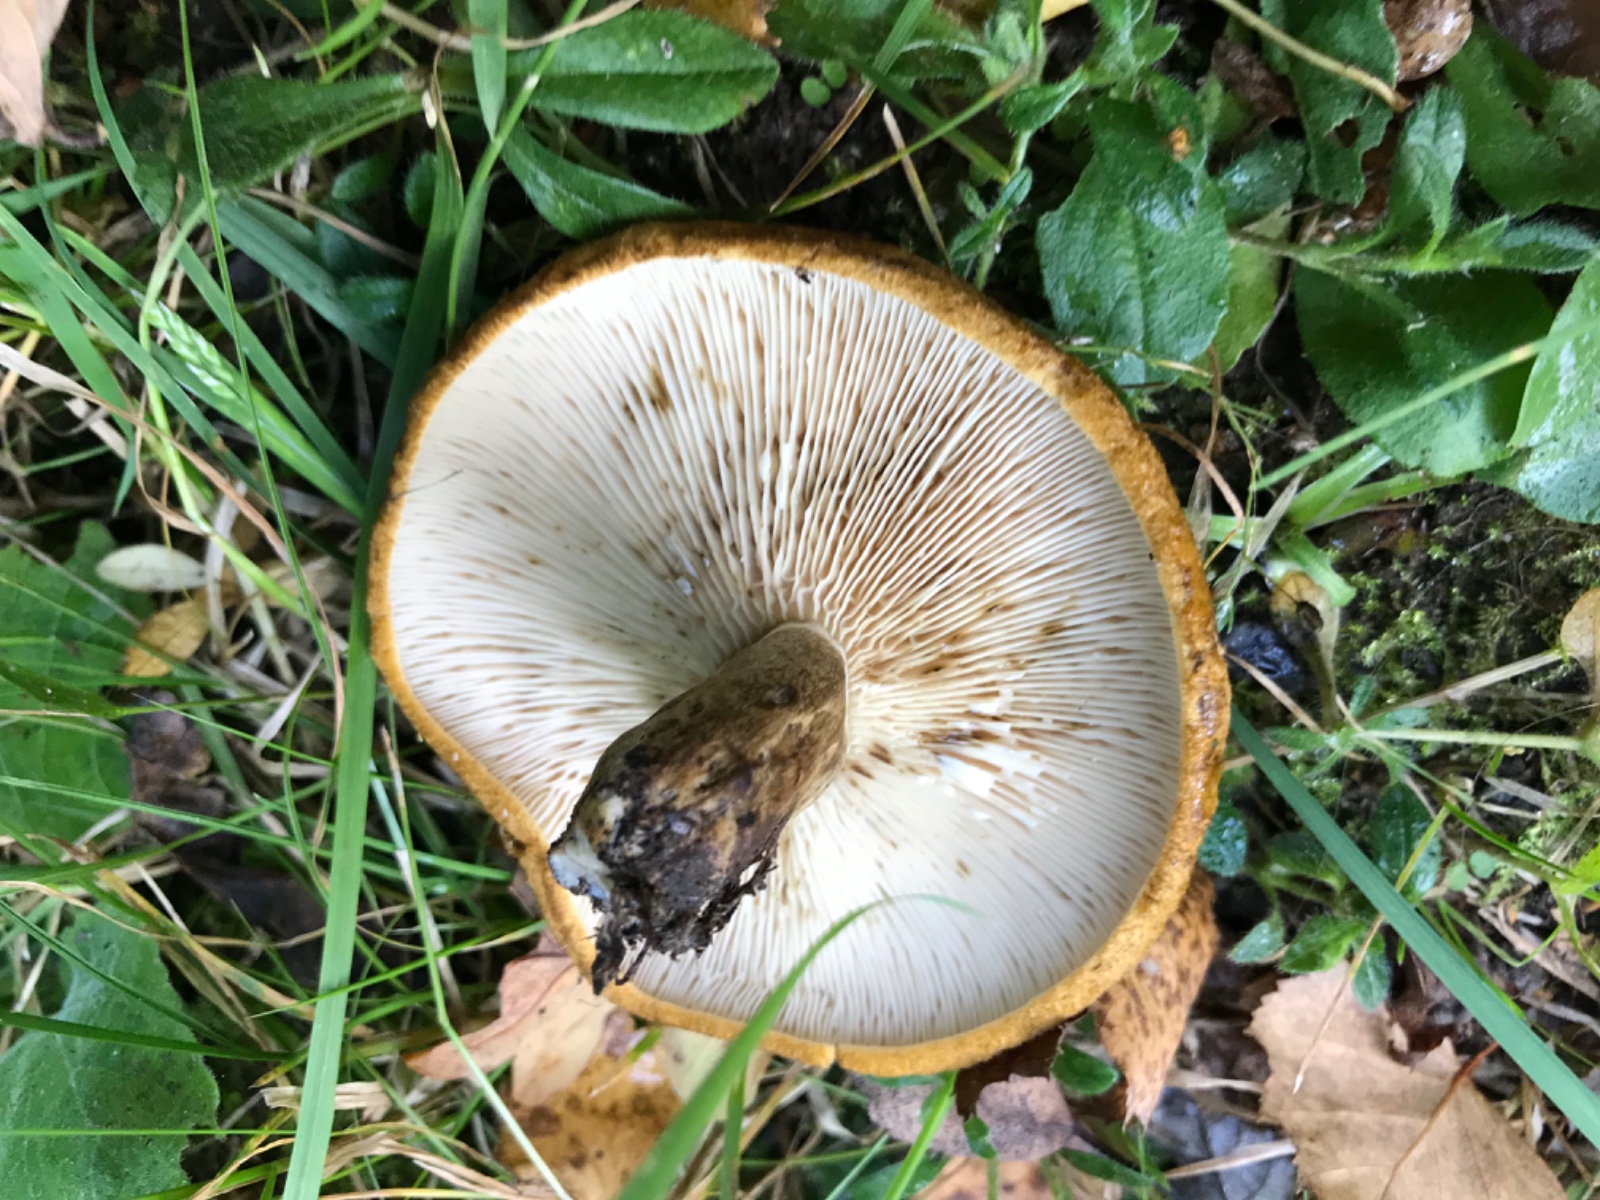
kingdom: Fungi
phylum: Basidiomycota
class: Agaricomycetes
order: Russulales
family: Russulaceae
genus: Lactarius
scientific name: Lactarius necator
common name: manddraber-mælkehat
